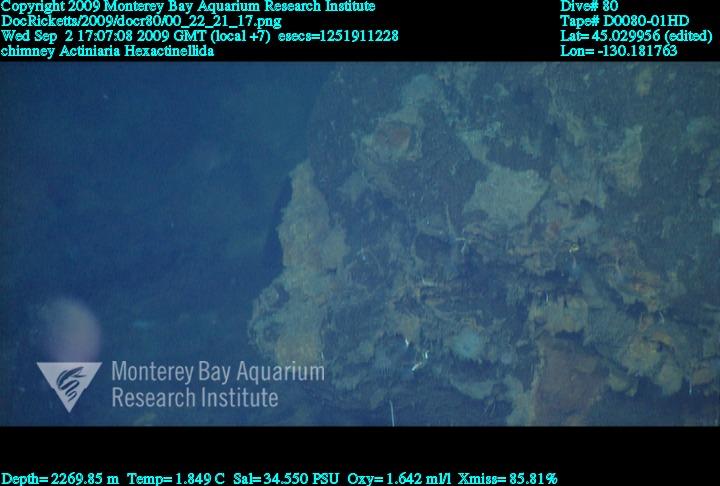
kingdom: Animalia
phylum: Porifera
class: Hexactinellida
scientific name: Hexactinellida
